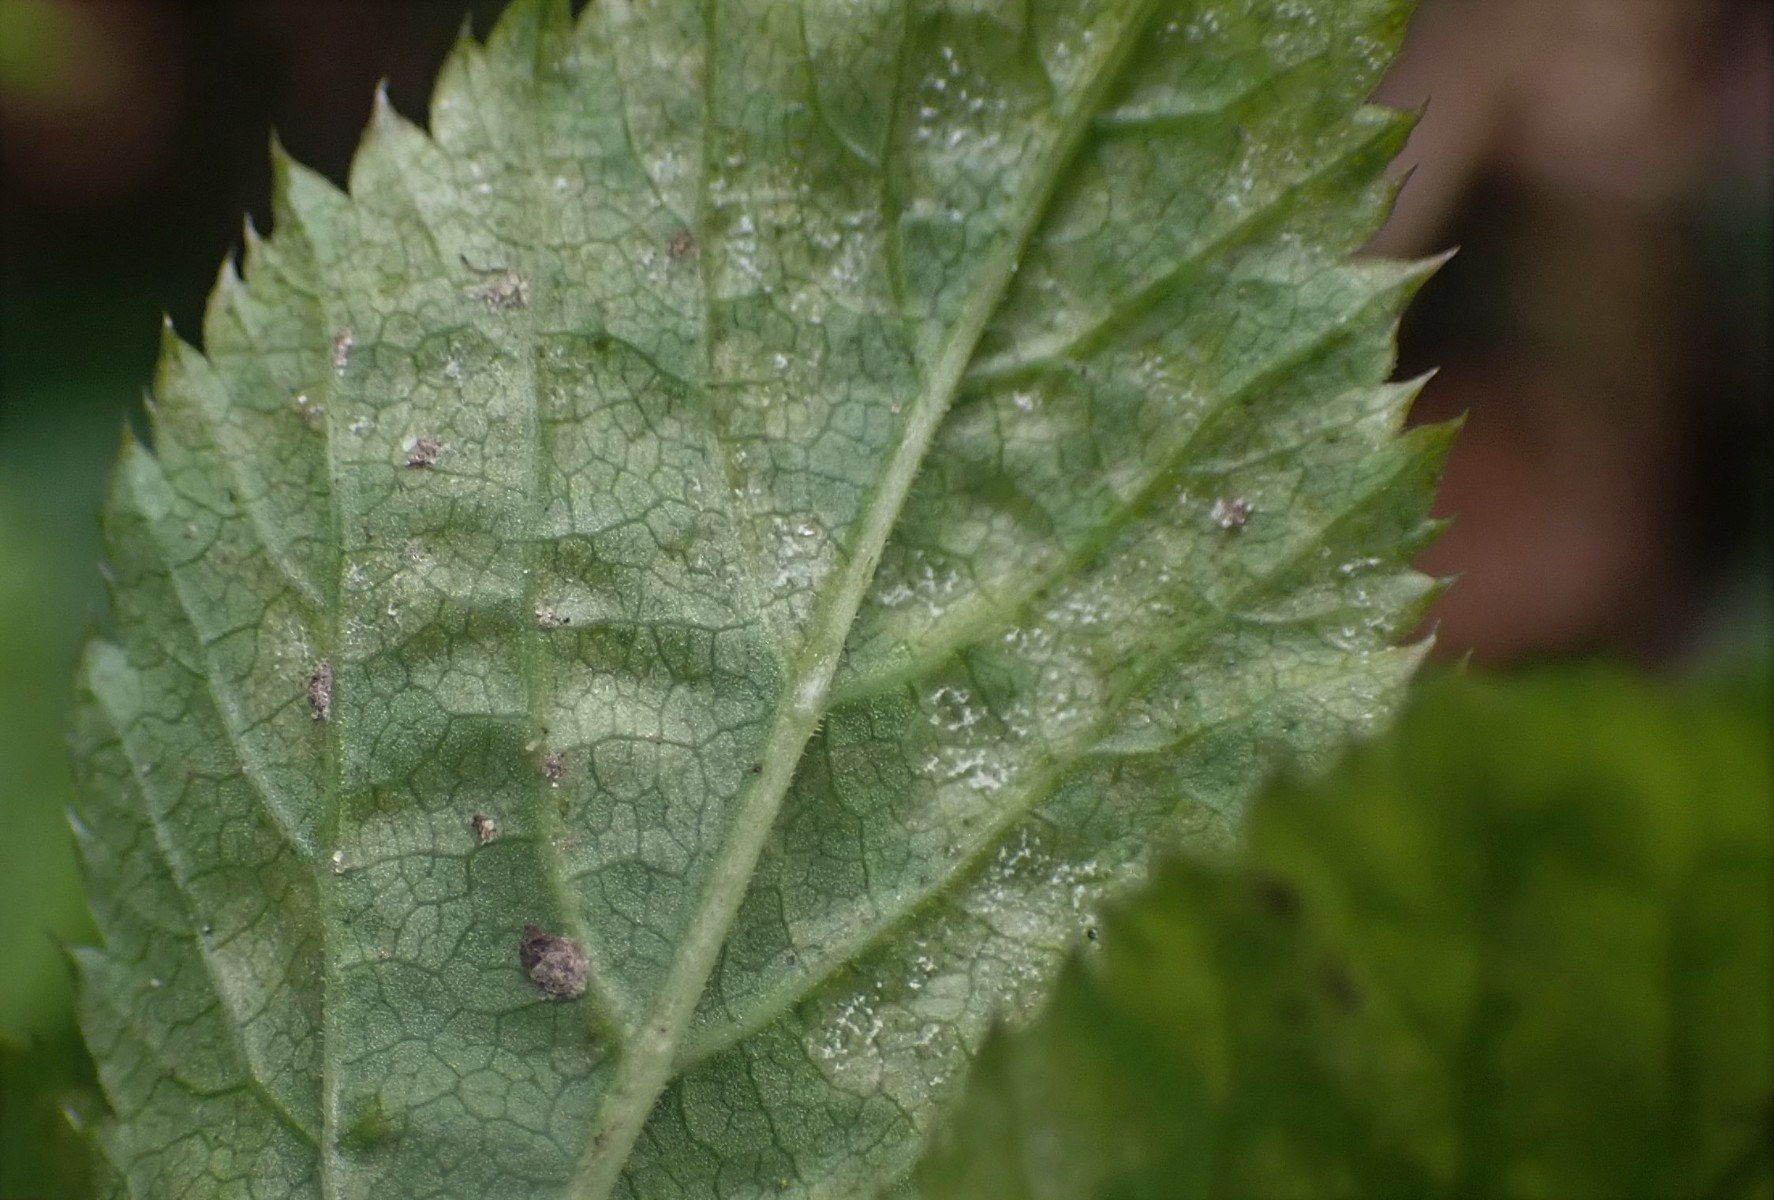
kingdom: Chromista
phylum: Oomycota
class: Peronosporea
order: Peronosporales
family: Peronosporaceae
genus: Peronospora
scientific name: Peronospora crustosa
